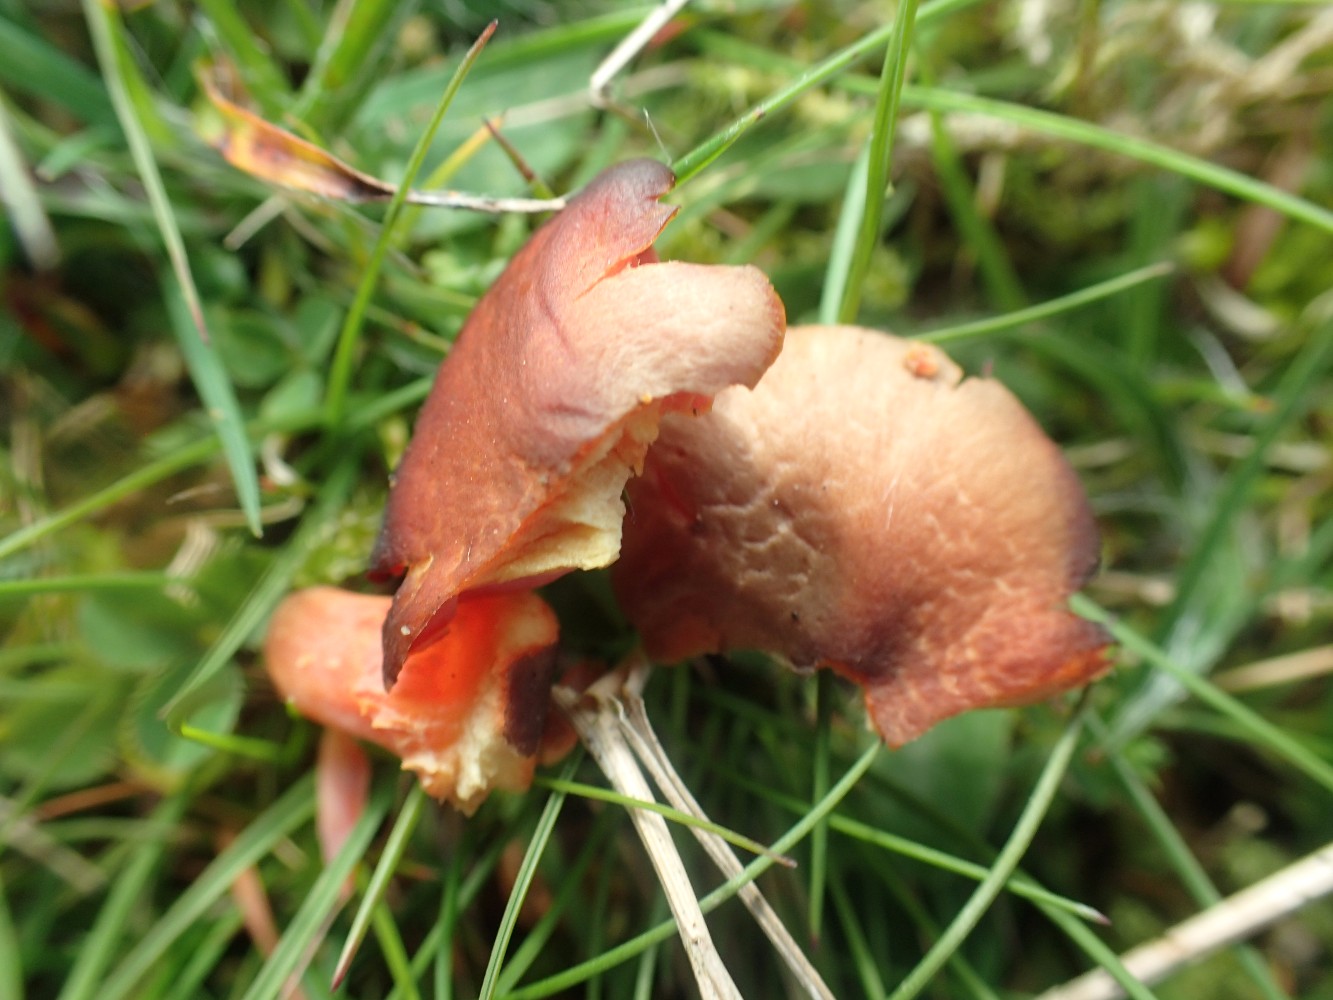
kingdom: Fungi
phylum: Basidiomycota
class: Agaricomycetes
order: Agaricales
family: Hygrophoraceae
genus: Hygrocybe
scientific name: Hygrocybe coccinea
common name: cinnober-vokshat
